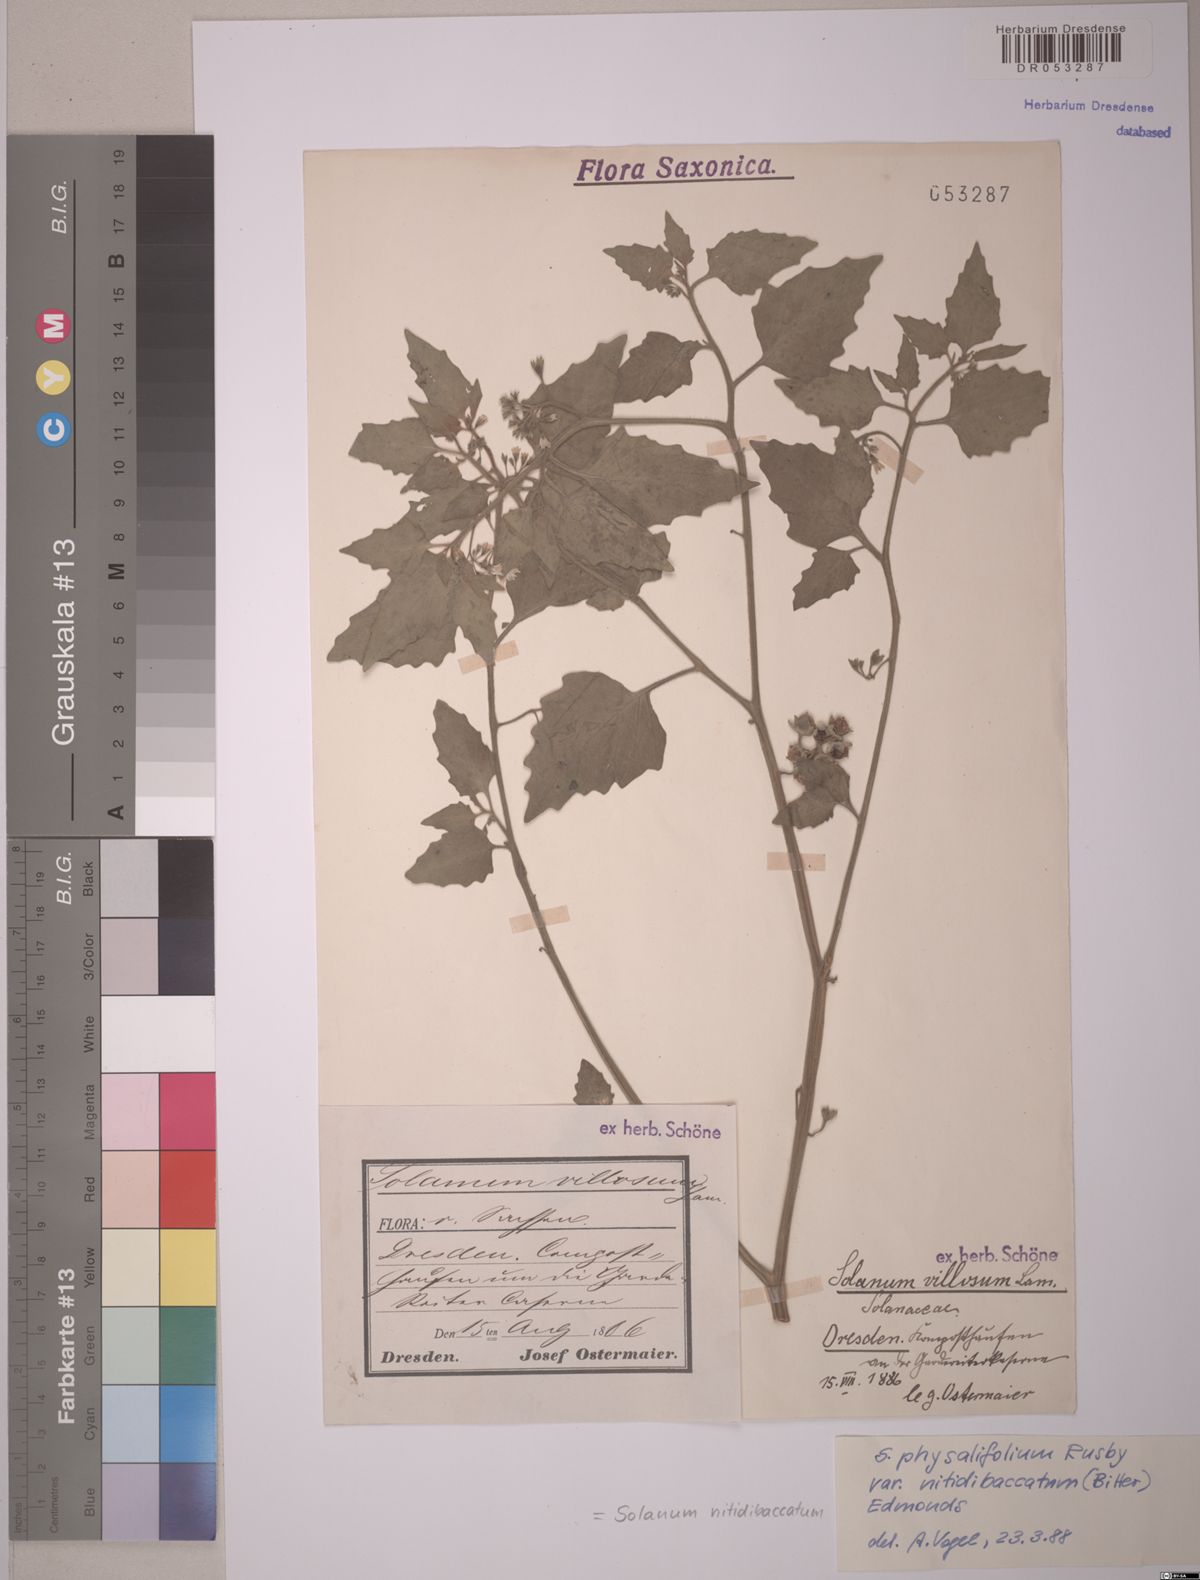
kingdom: Plantae
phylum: Tracheophyta
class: Magnoliopsida
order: Solanales
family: Solanaceae
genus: Solanum
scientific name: Solanum nitidibaccatum
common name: Hairy nightshade
